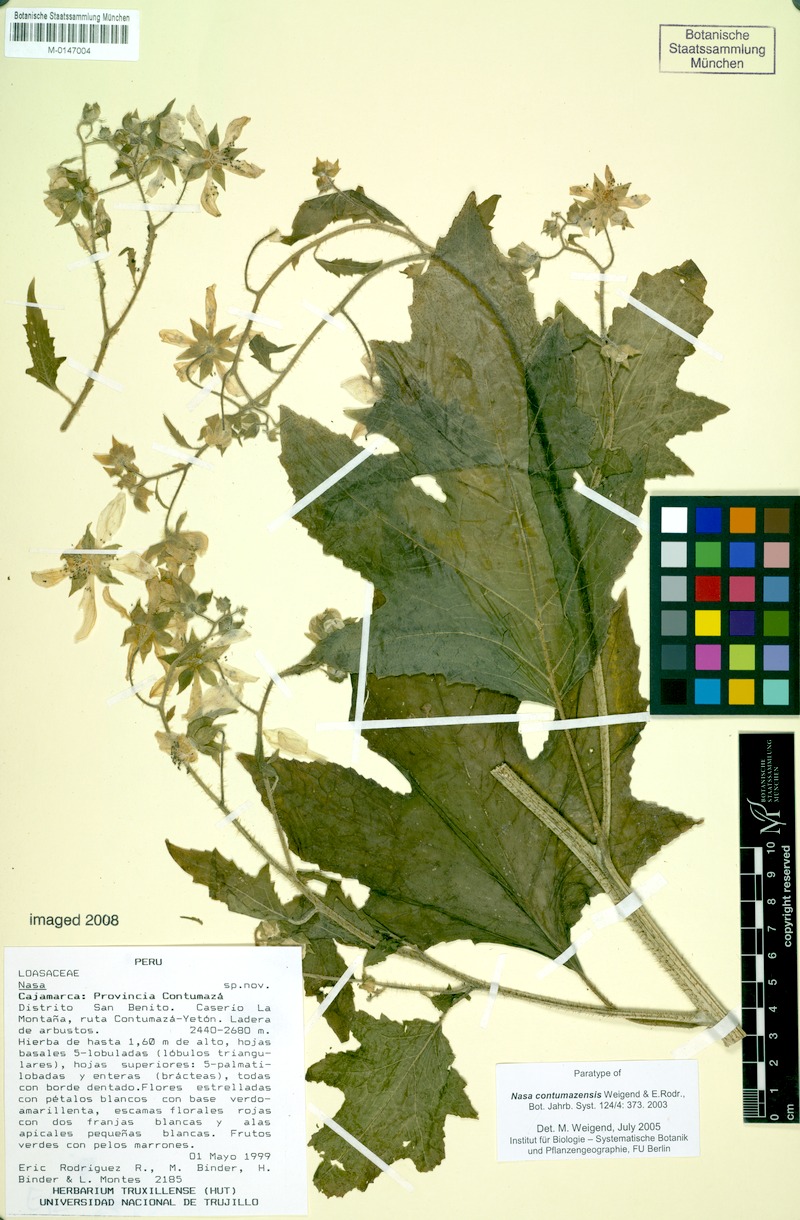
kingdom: Plantae
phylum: Tracheophyta
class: Magnoliopsida
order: Cornales
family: Loasaceae
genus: Nasa
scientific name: Nasa contumazensis
